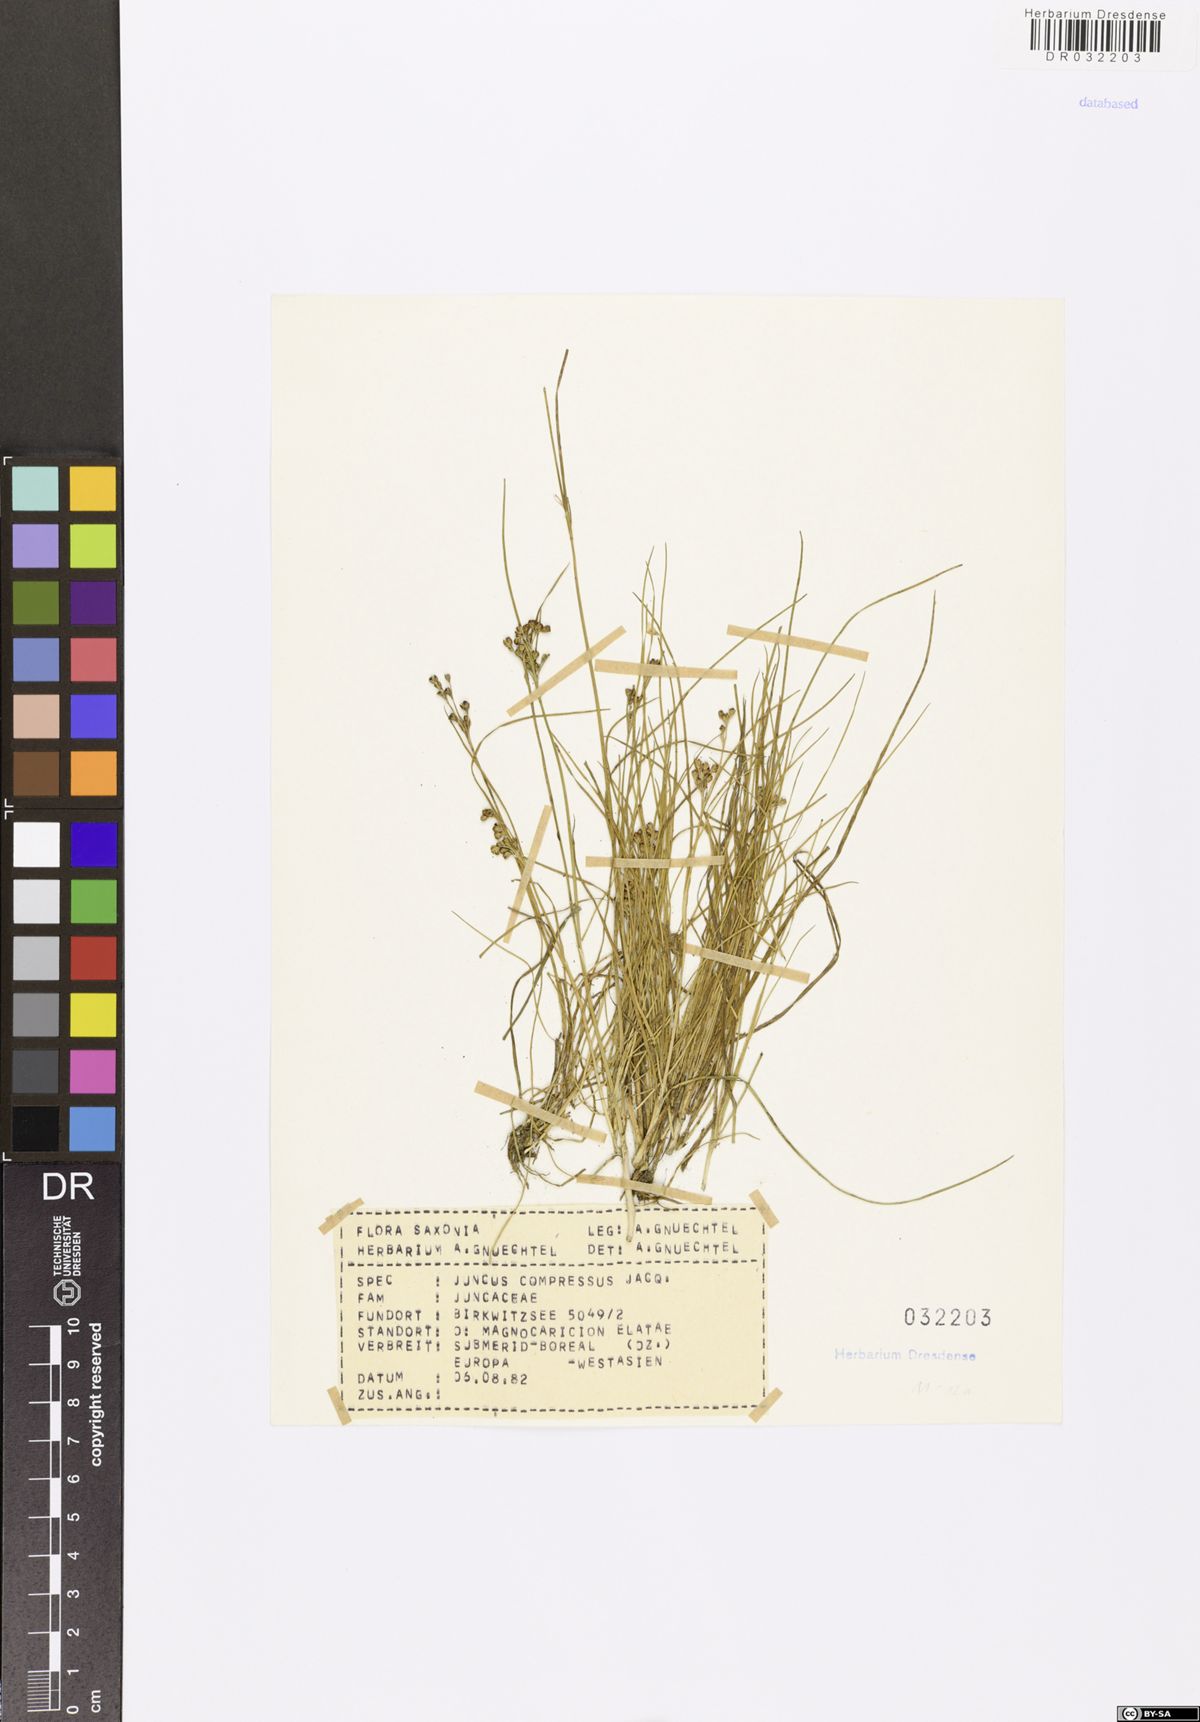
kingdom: Plantae
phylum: Tracheophyta
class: Liliopsida
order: Poales
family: Juncaceae
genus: Juncus
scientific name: Juncus compressus
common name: Round-fruited rush
